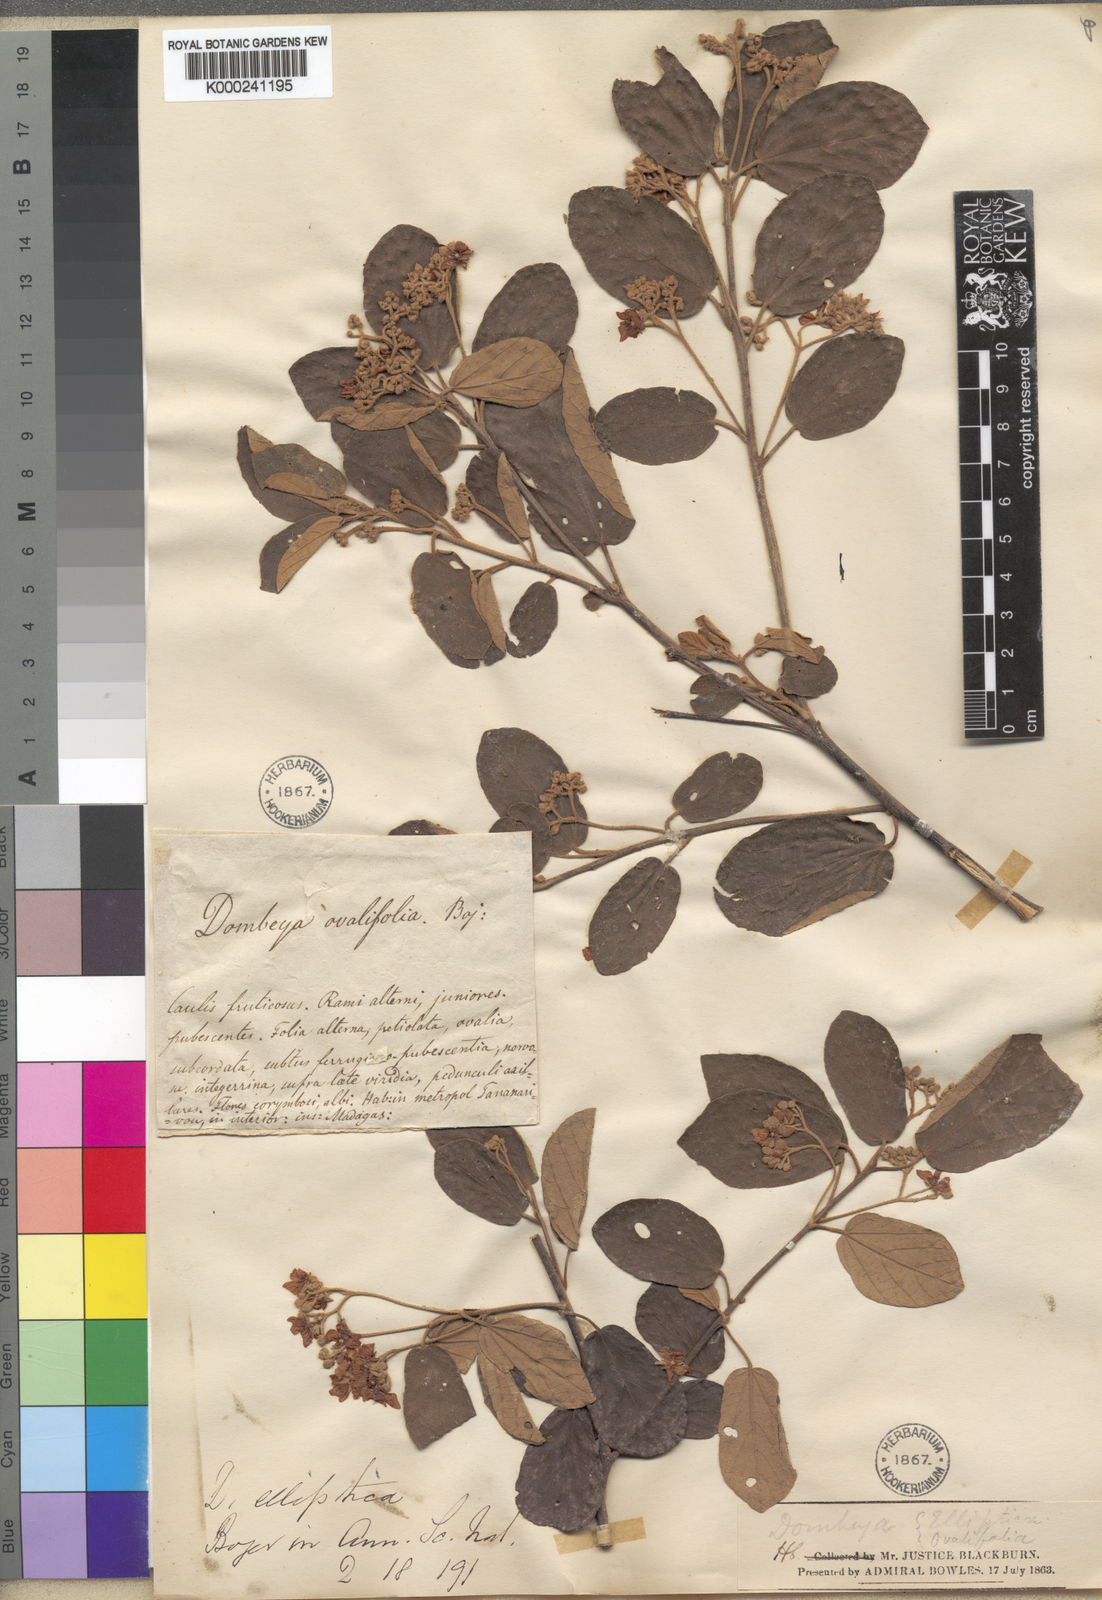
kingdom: Plantae
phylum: Tracheophyta
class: Magnoliopsida
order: Malvales
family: Malvaceae
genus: Dombeya
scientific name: Dombeya
